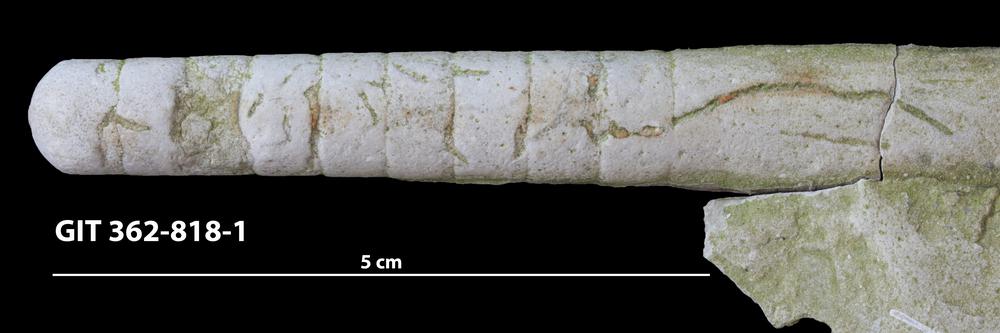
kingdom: Animalia
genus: Pilichnus
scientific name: Pilichnus
